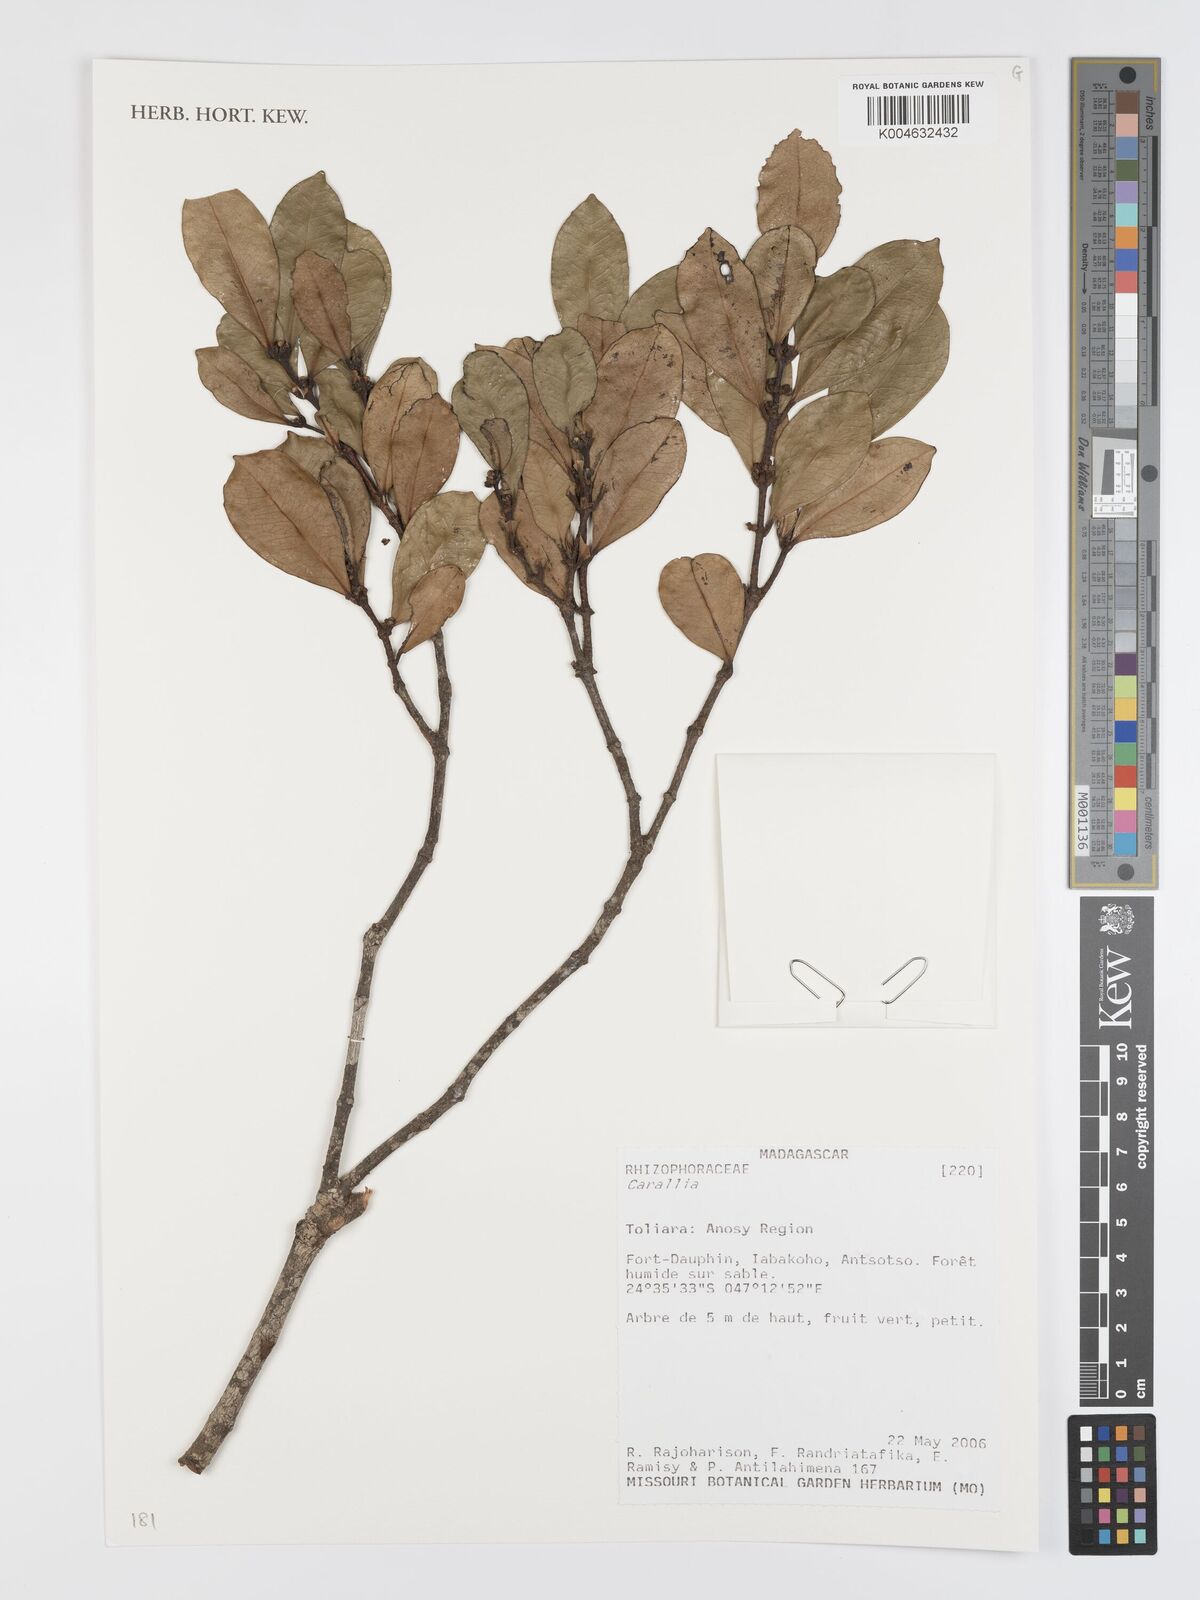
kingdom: Plantae
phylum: Tracheophyta
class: Magnoliopsida
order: Malpighiales
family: Rhizophoraceae
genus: Carallia
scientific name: Carallia
